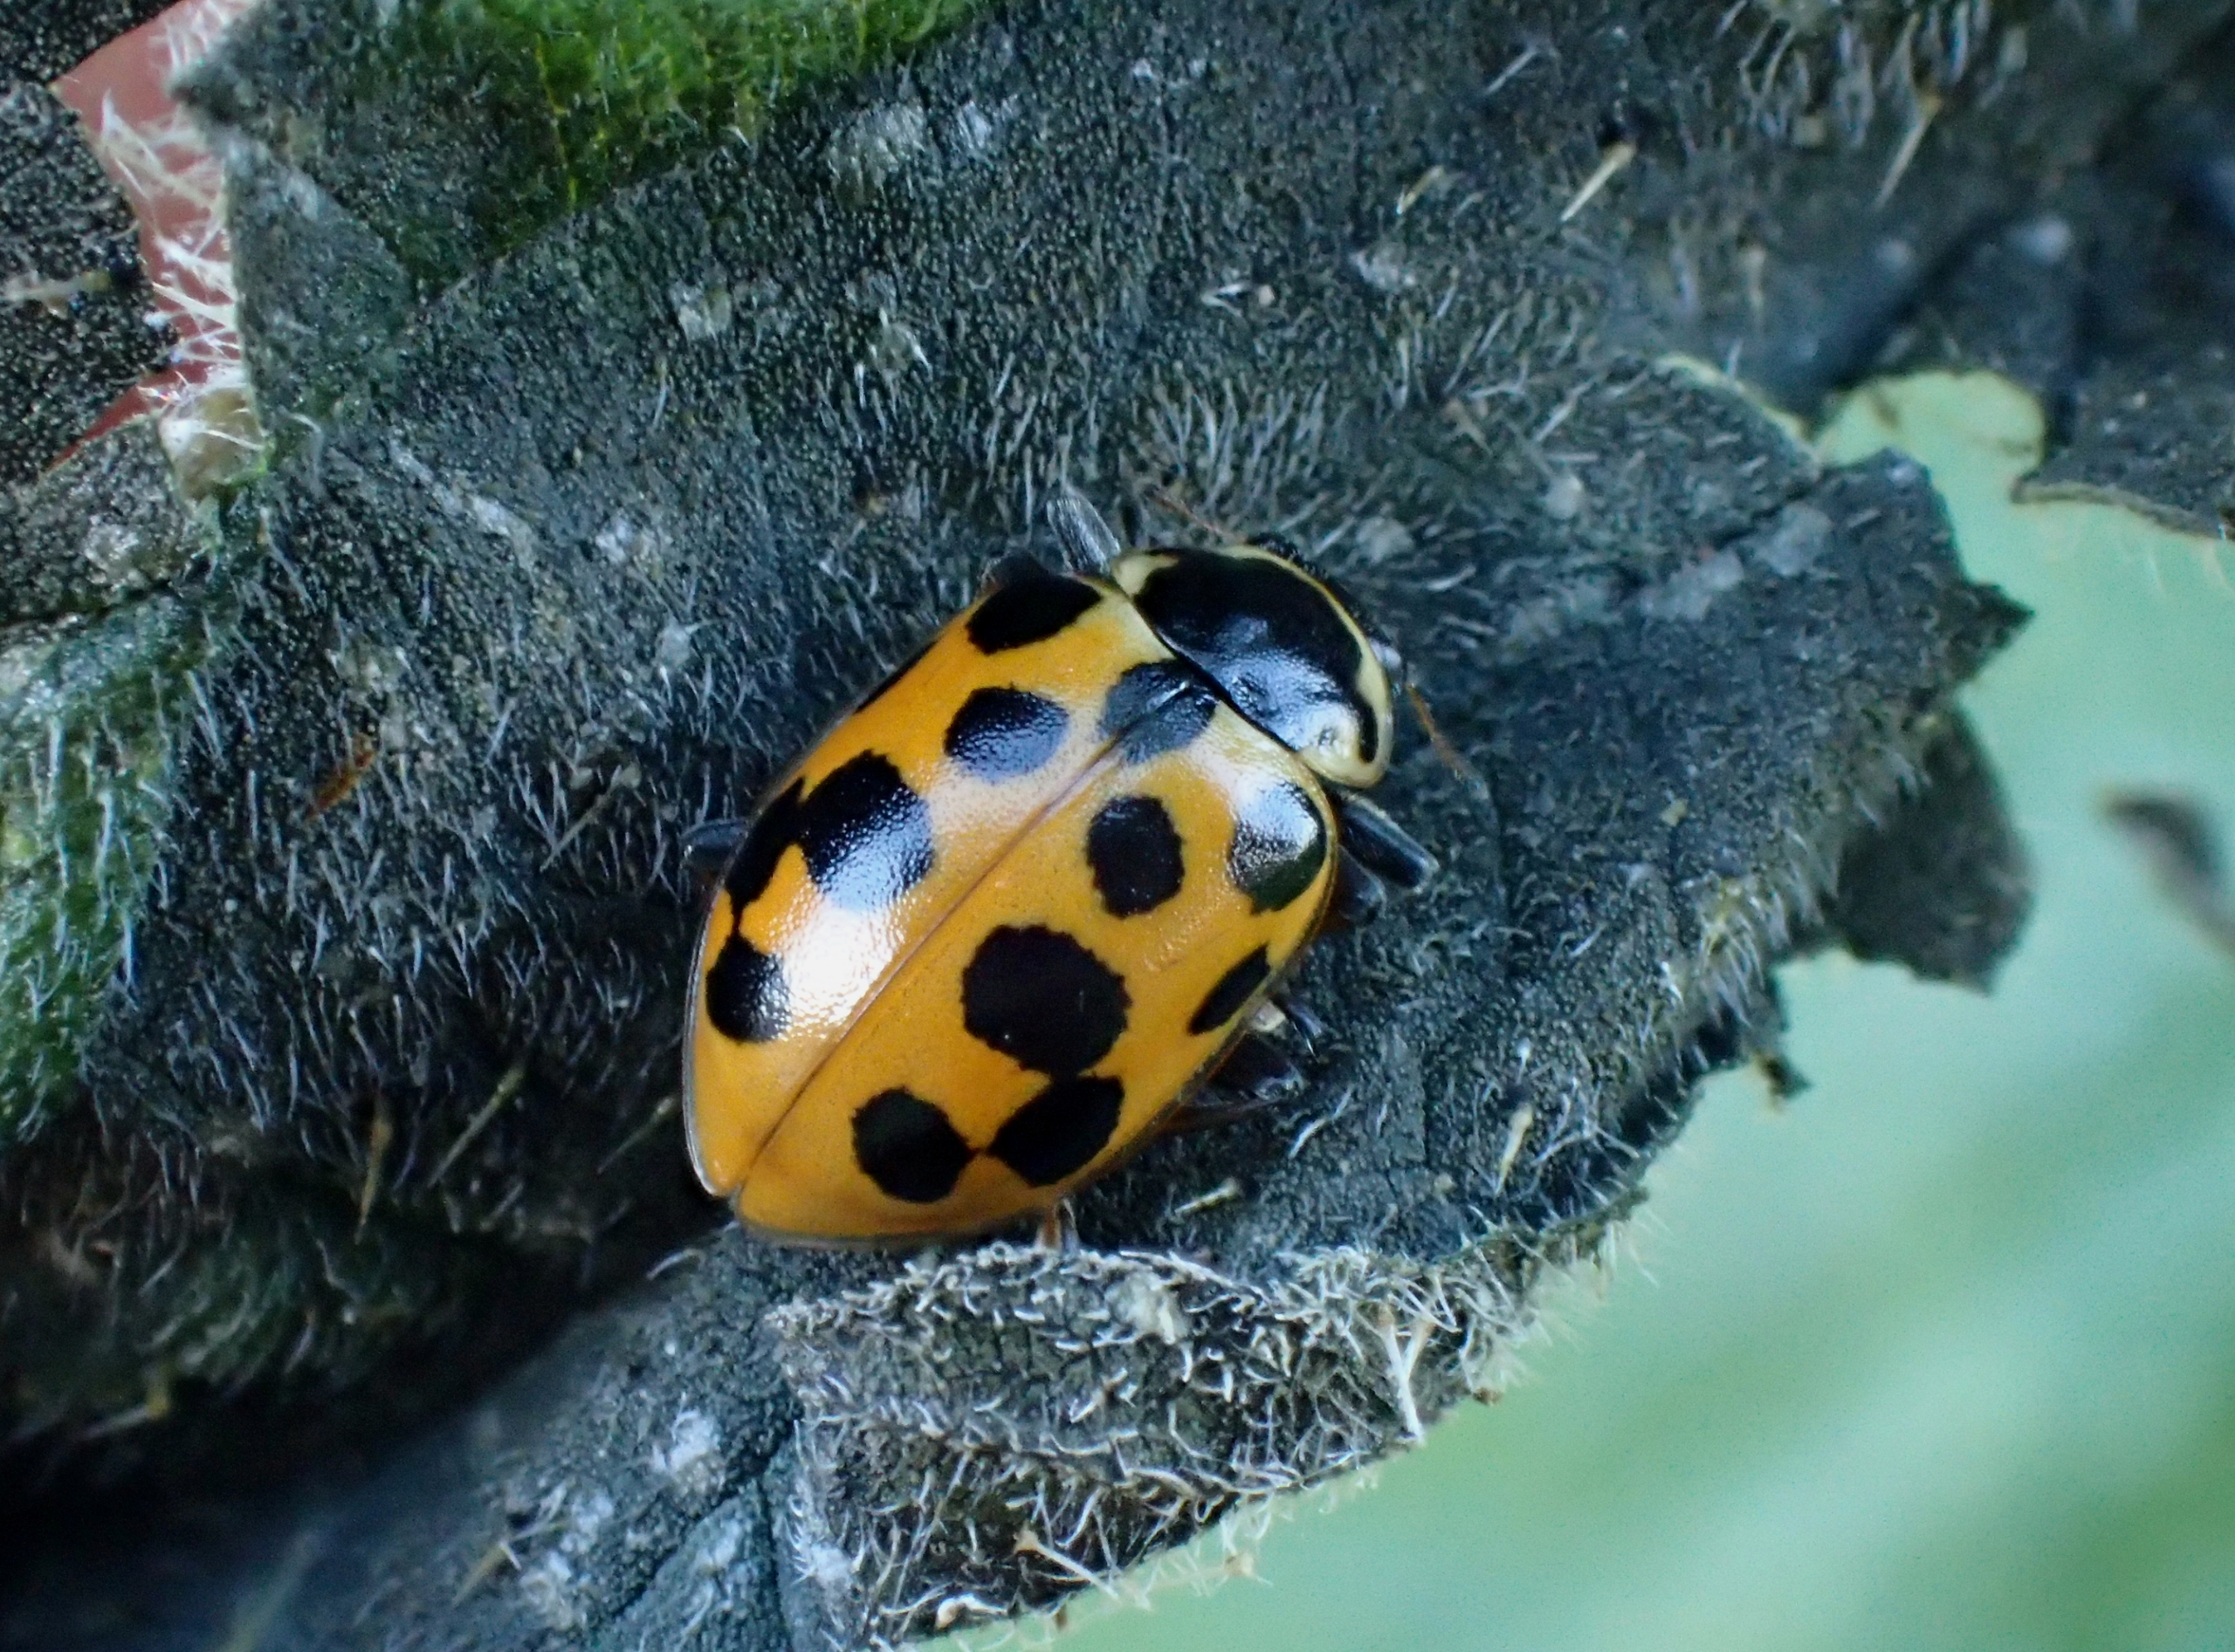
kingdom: Animalia
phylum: Arthropoda
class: Insecta
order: Coleoptera
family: Coccinellidae
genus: Hippodamia
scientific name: Hippodamia tredecimpunctata
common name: Trettenplettet mariehøne
